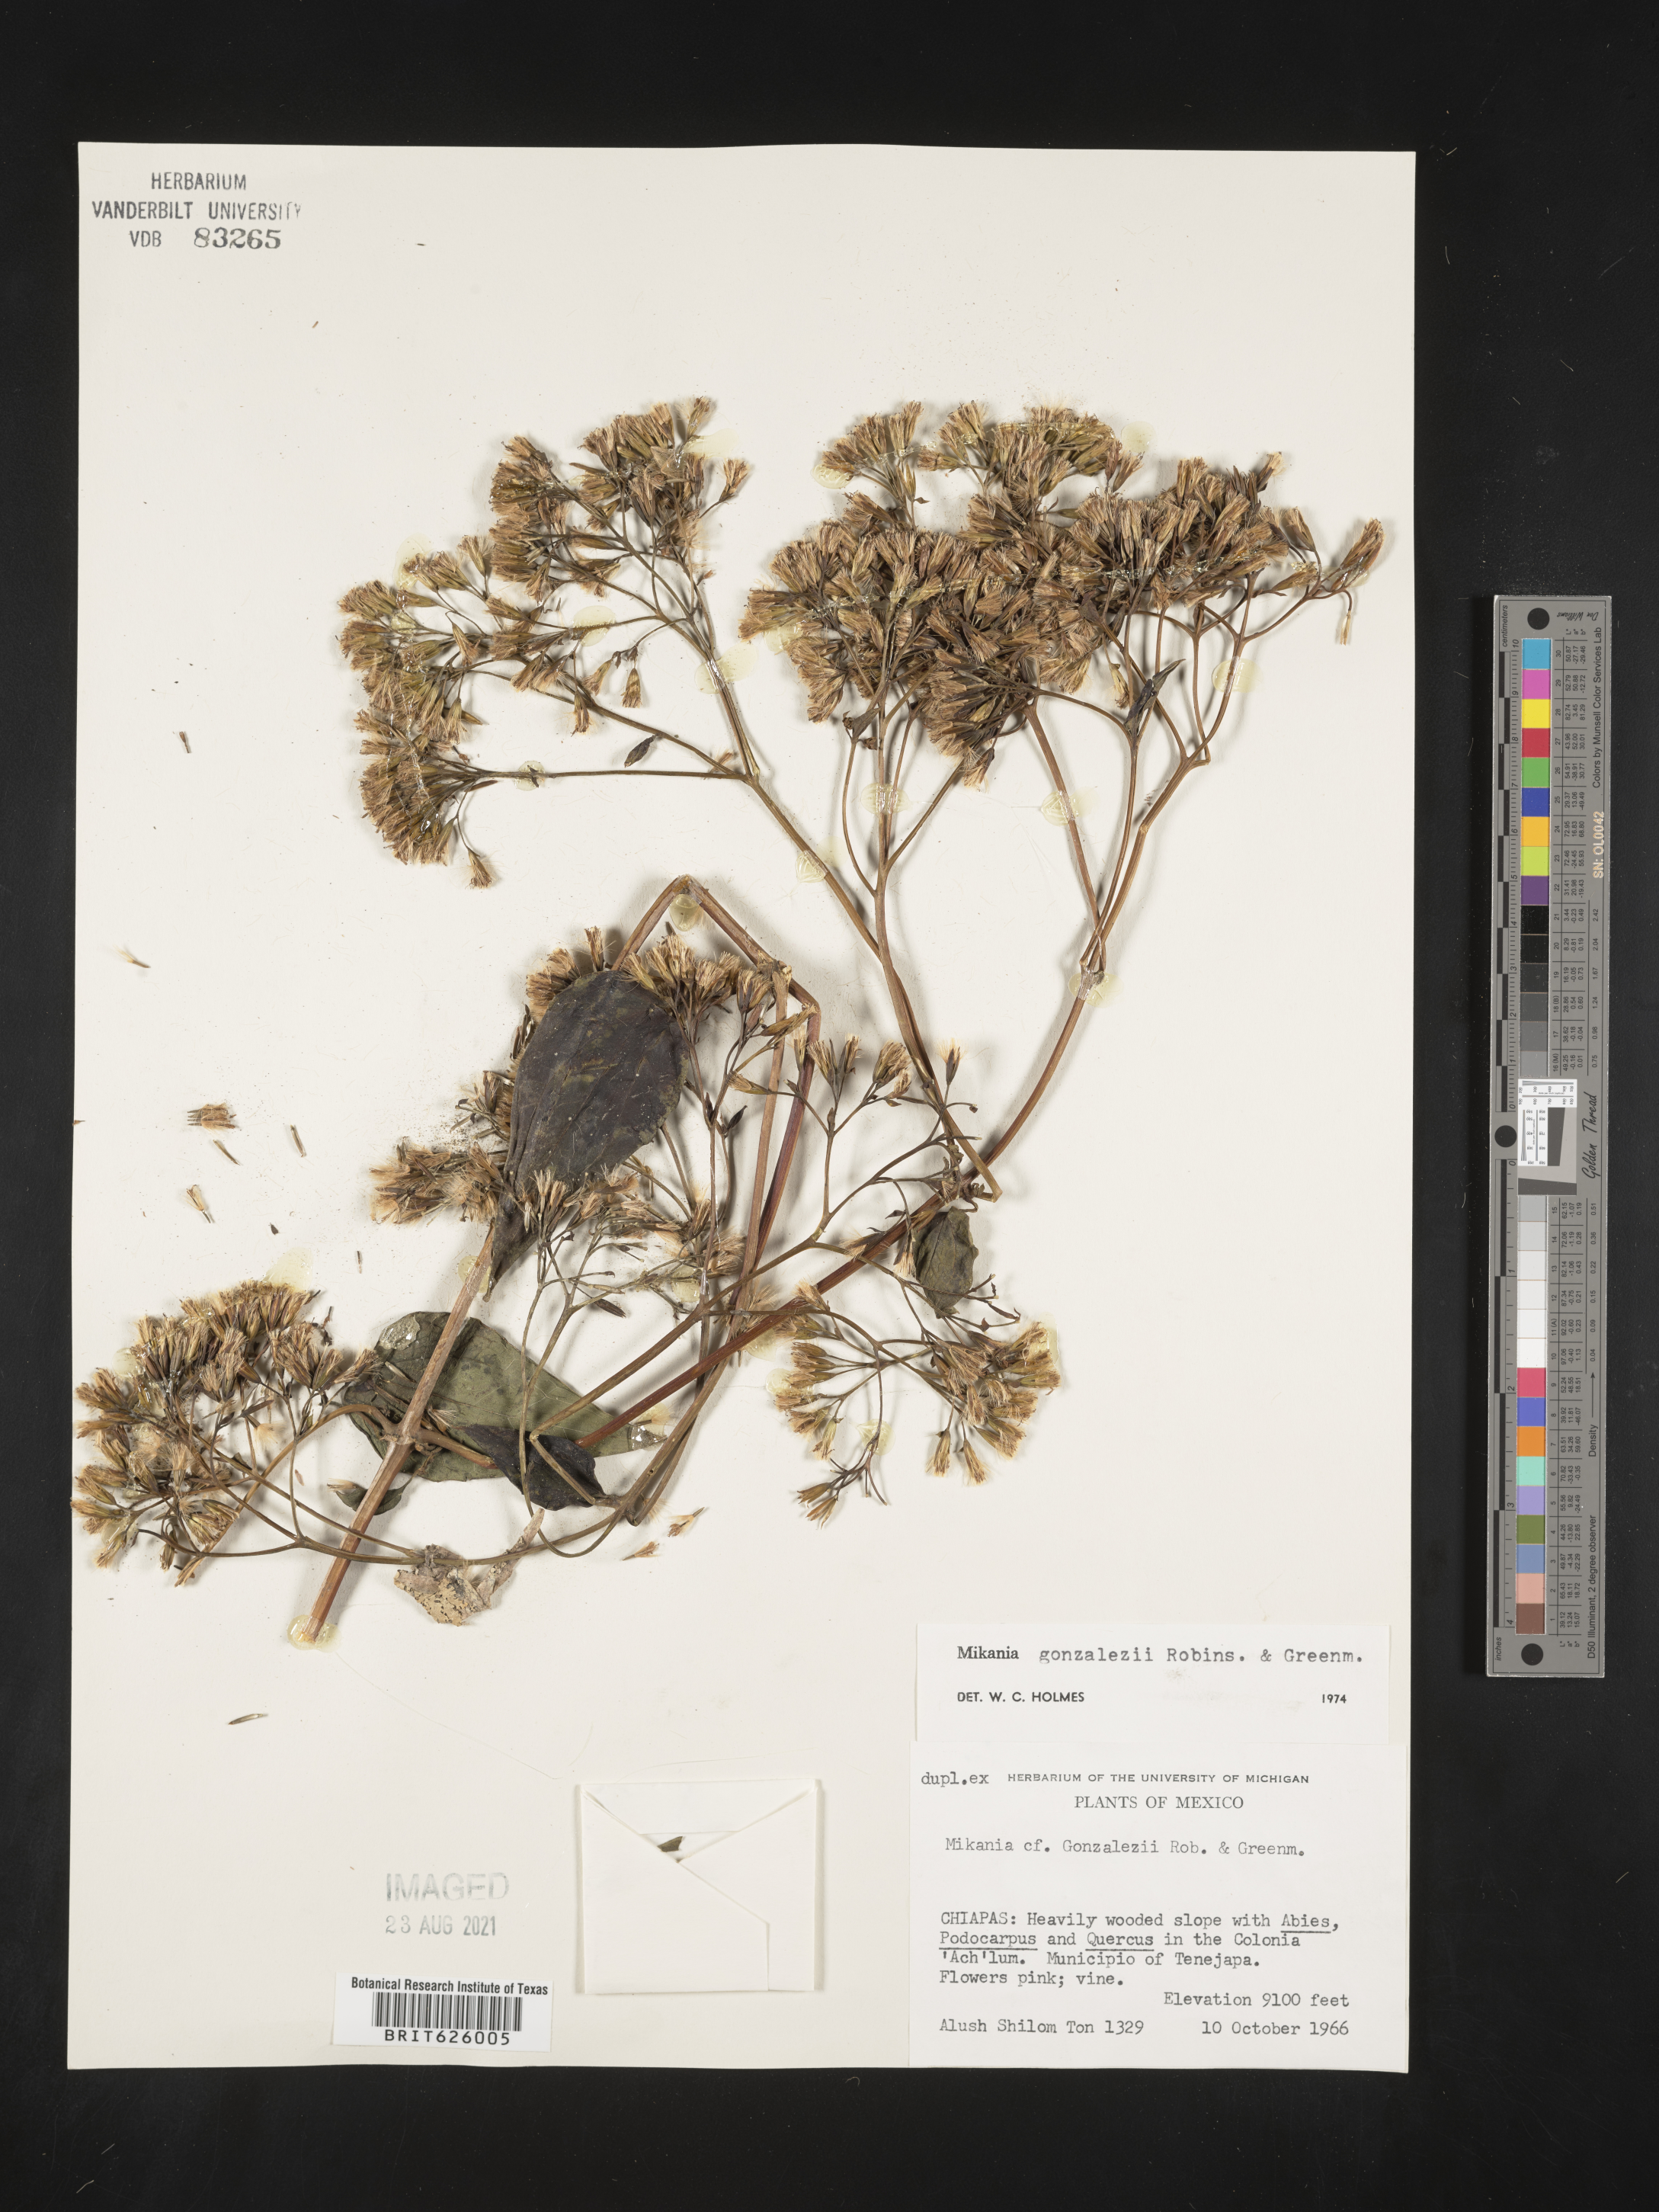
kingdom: Plantae
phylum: Tracheophyta
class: Magnoliopsida
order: Asterales
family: Asteraceae
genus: Mikania
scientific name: Mikania gonzalezii
